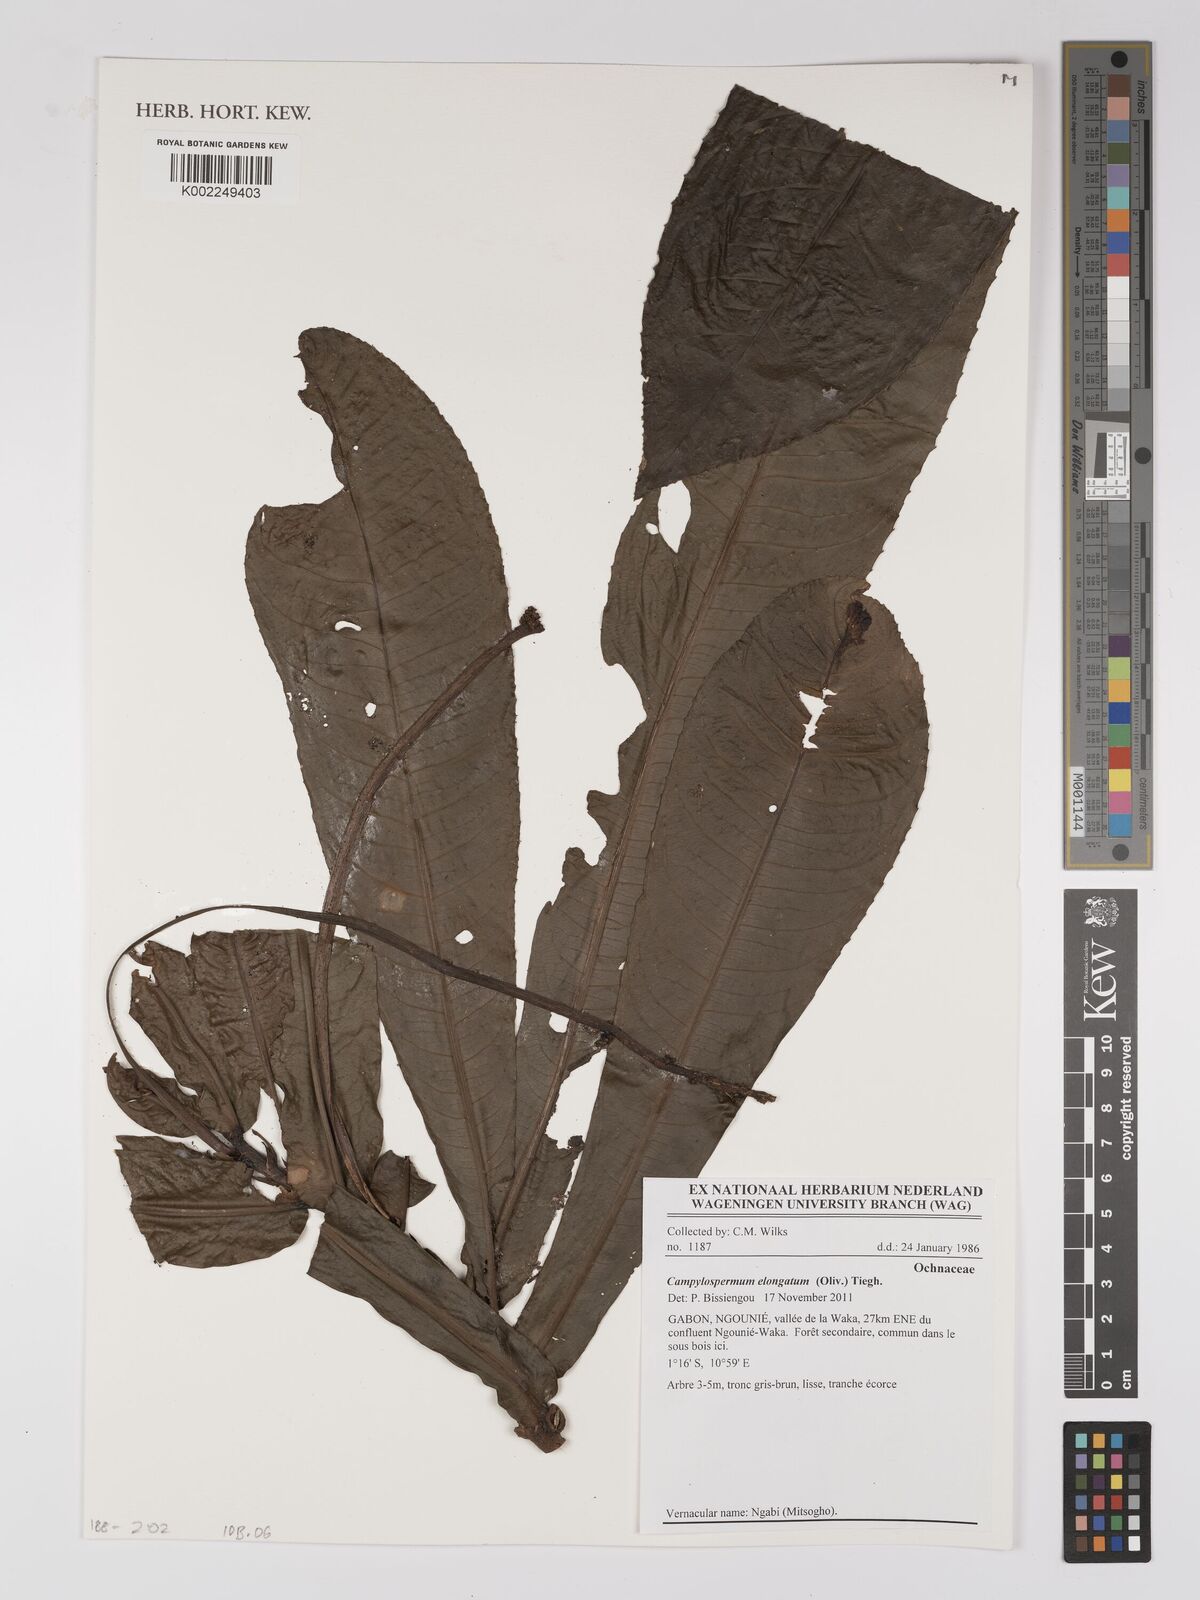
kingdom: Plantae
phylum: Tracheophyta
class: Magnoliopsida
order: Malpighiales
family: Ochnaceae
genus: Gomphia
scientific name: Gomphia elongata
